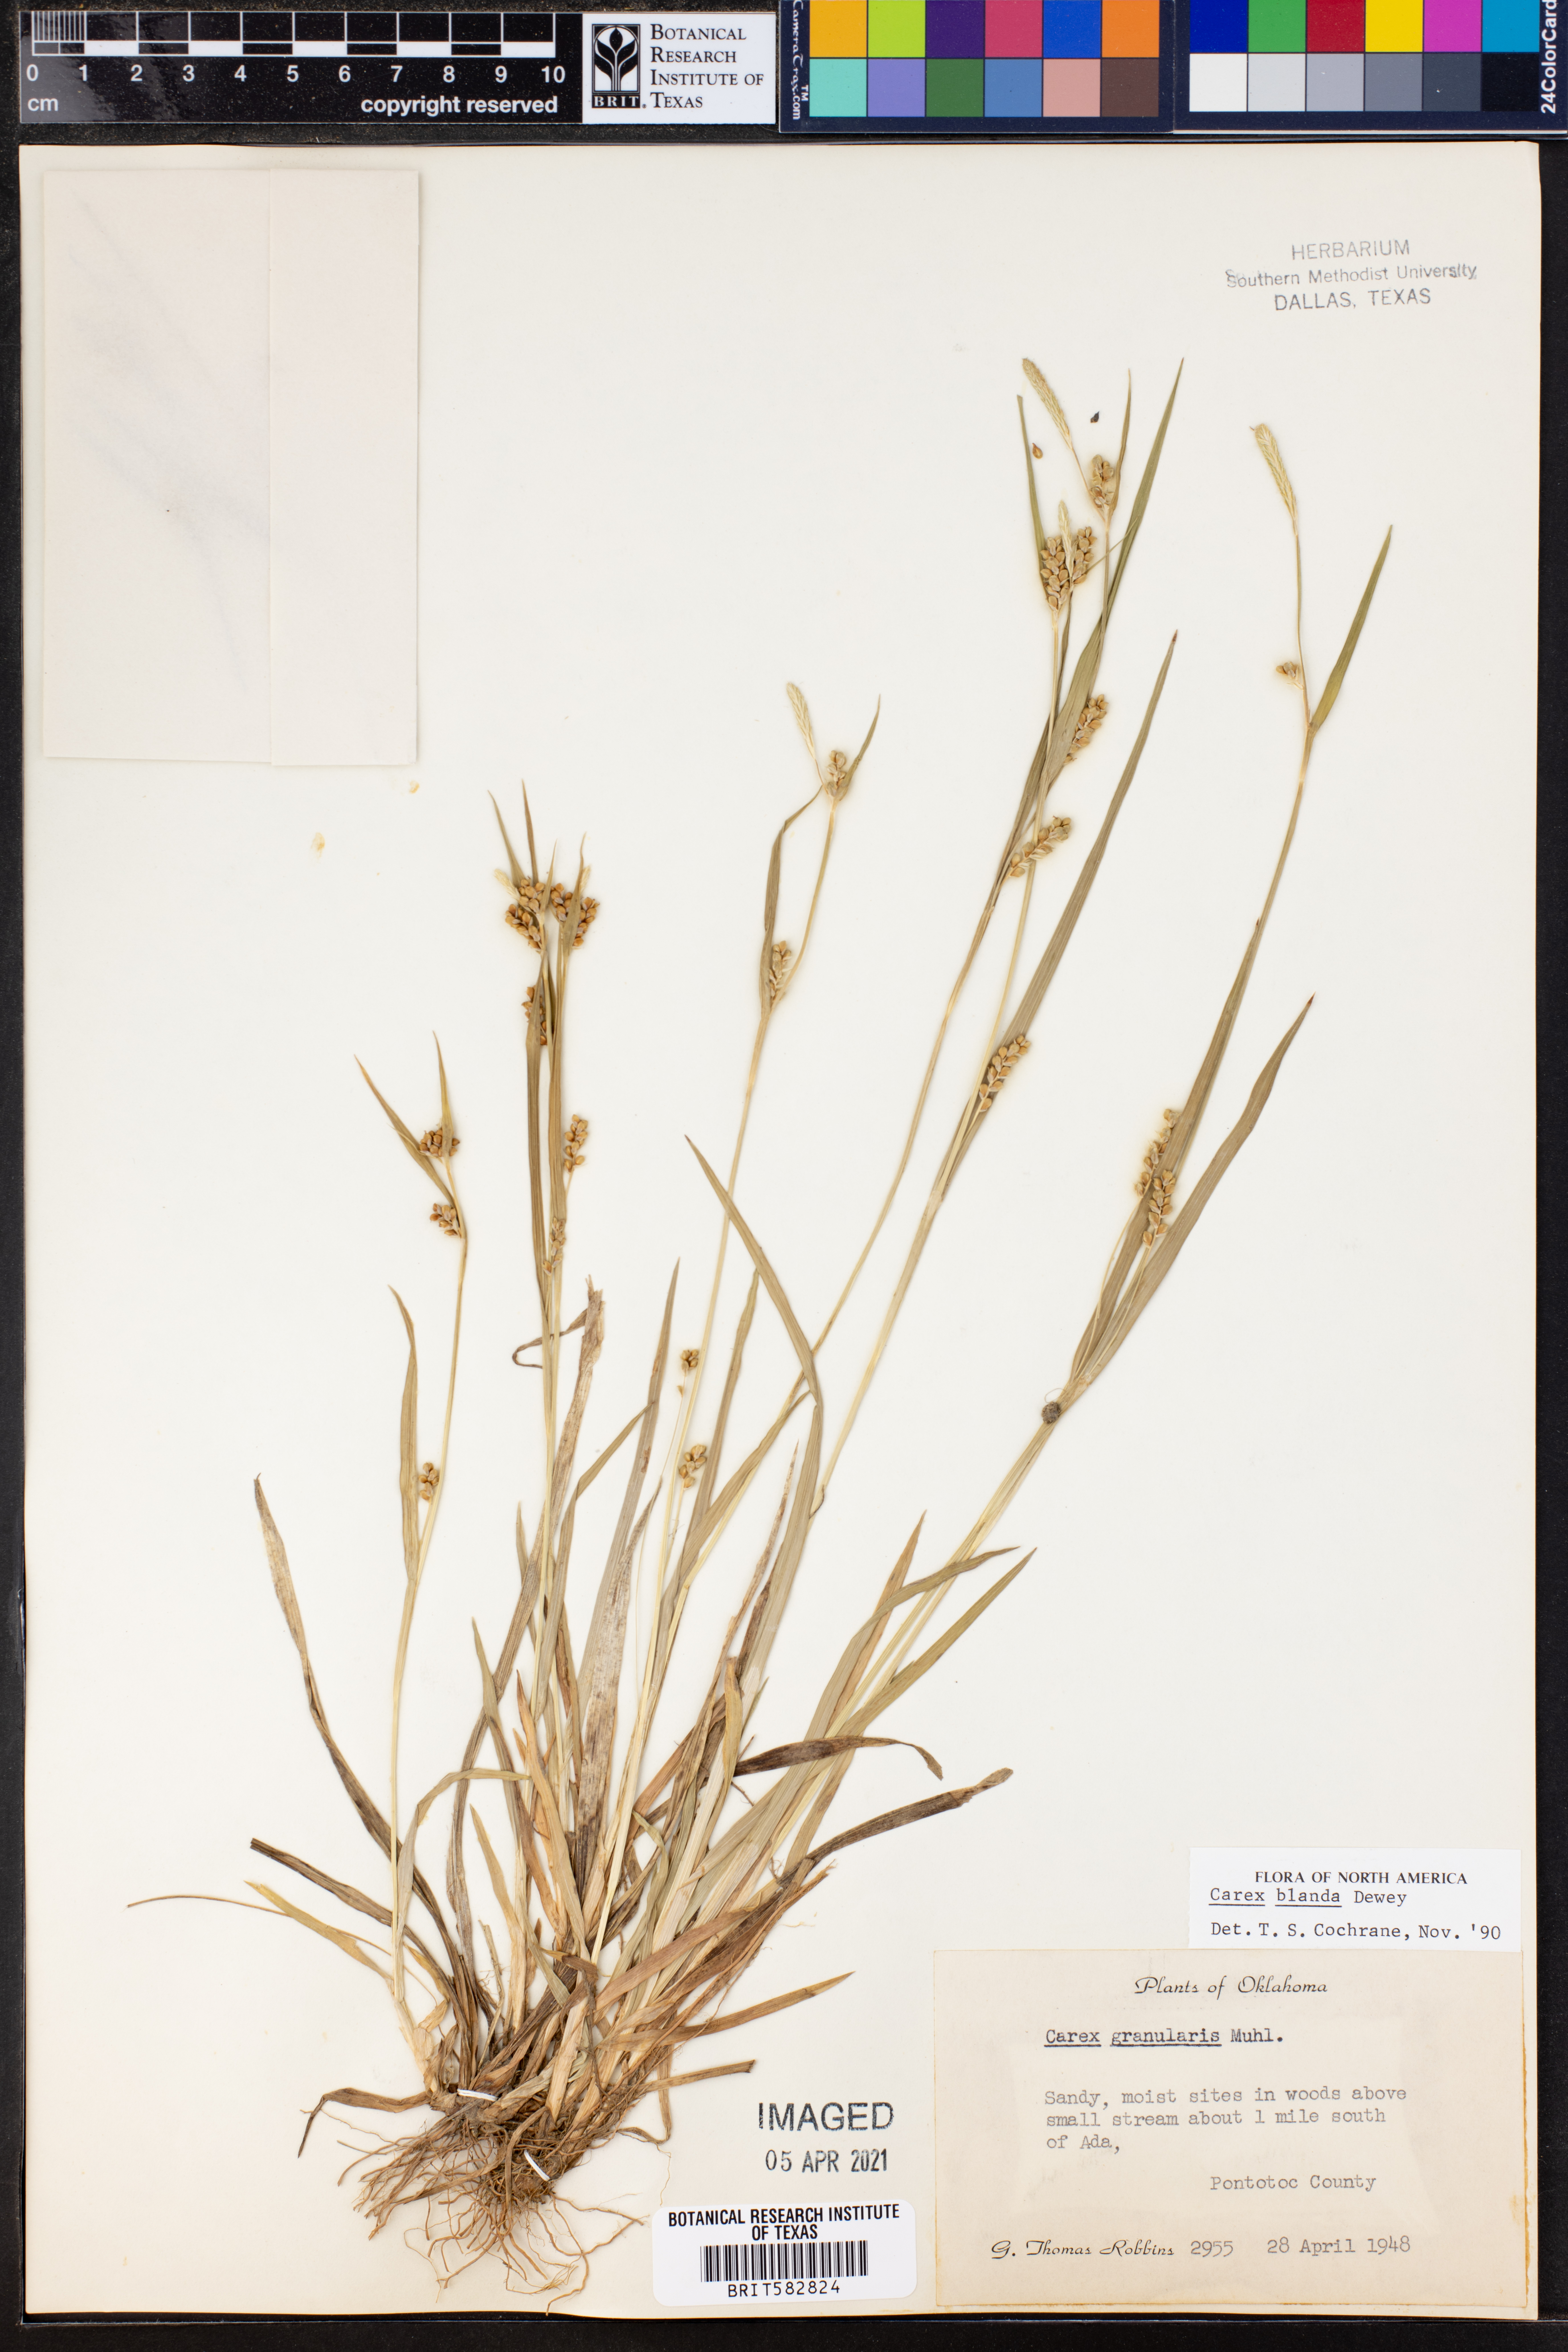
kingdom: Plantae
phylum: Tracheophyta
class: Liliopsida
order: Poales
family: Cyperaceae
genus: Carex
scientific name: Carex blanda
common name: Bland sedge
